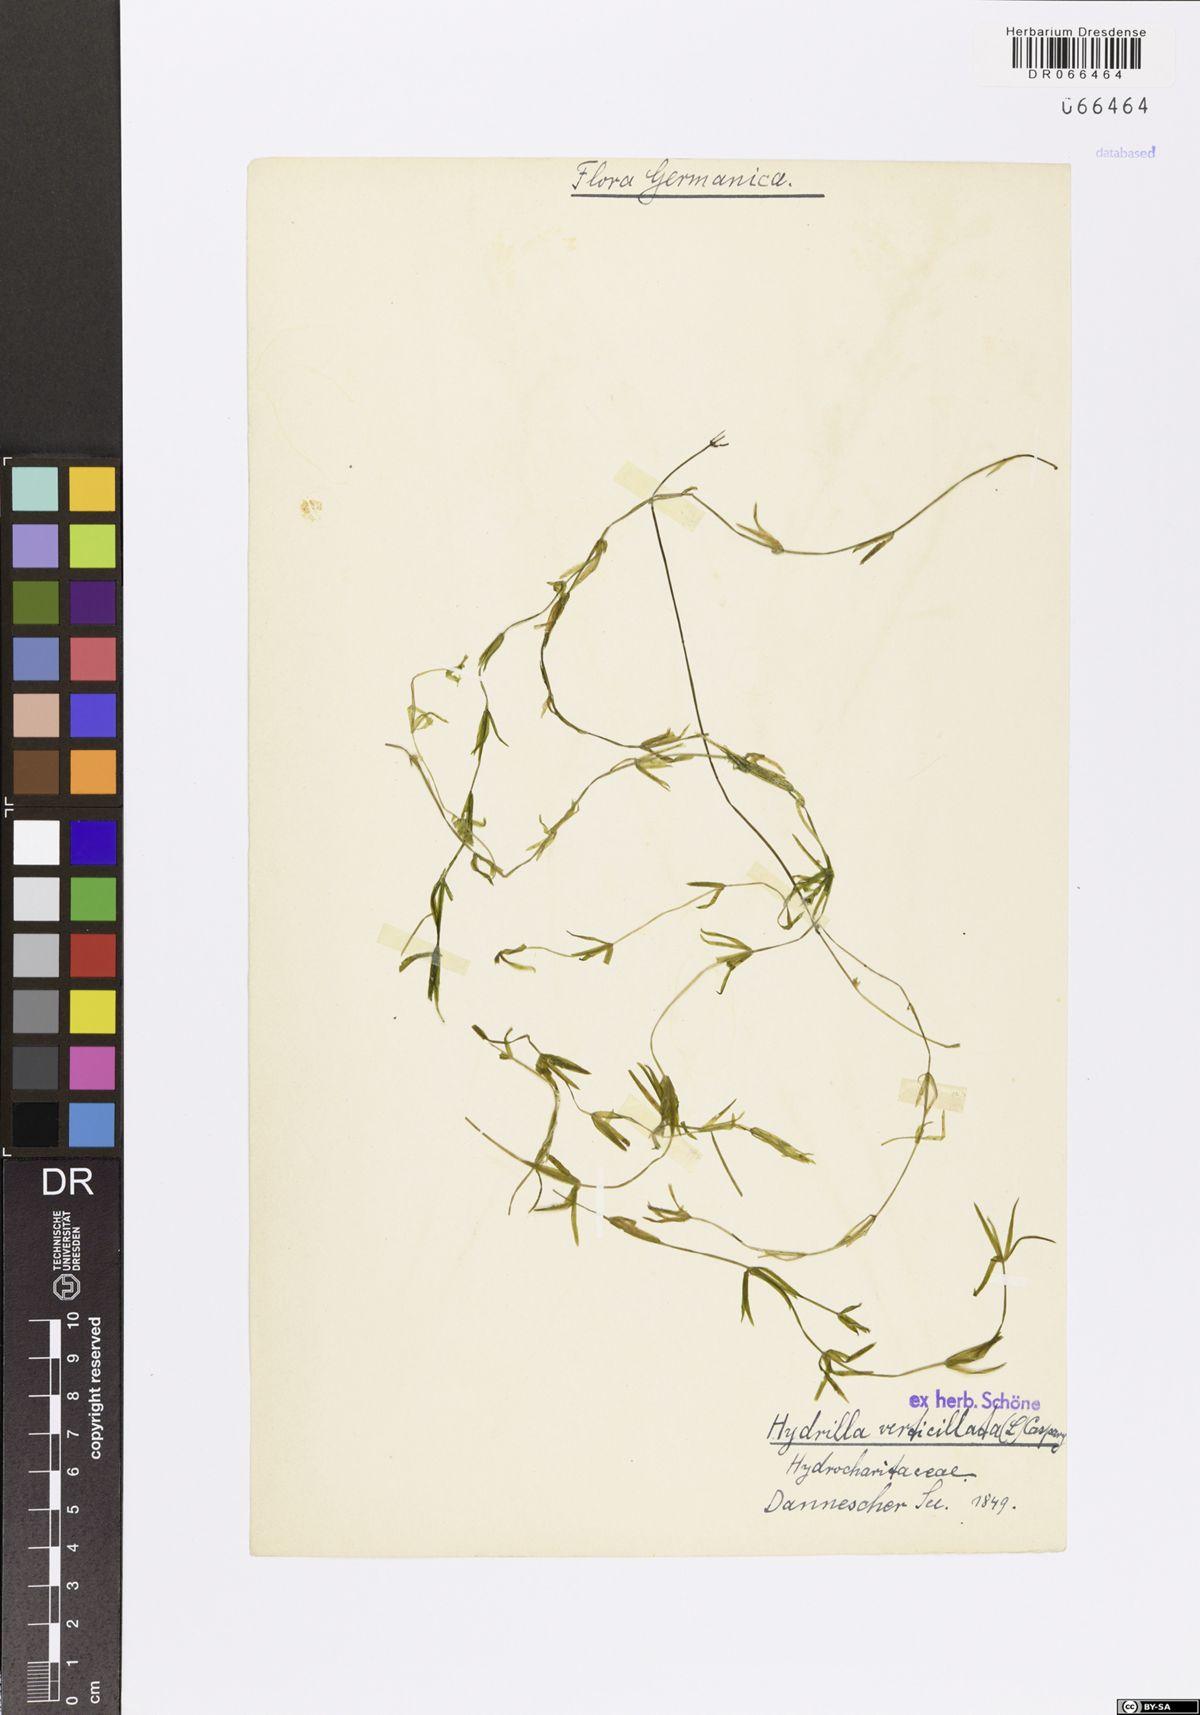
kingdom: Plantae
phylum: Tracheophyta
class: Liliopsida
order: Alismatales
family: Hydrocharitaceae
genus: Hydrilla
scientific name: Hydrilla verticillata
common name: Florida-elodea
